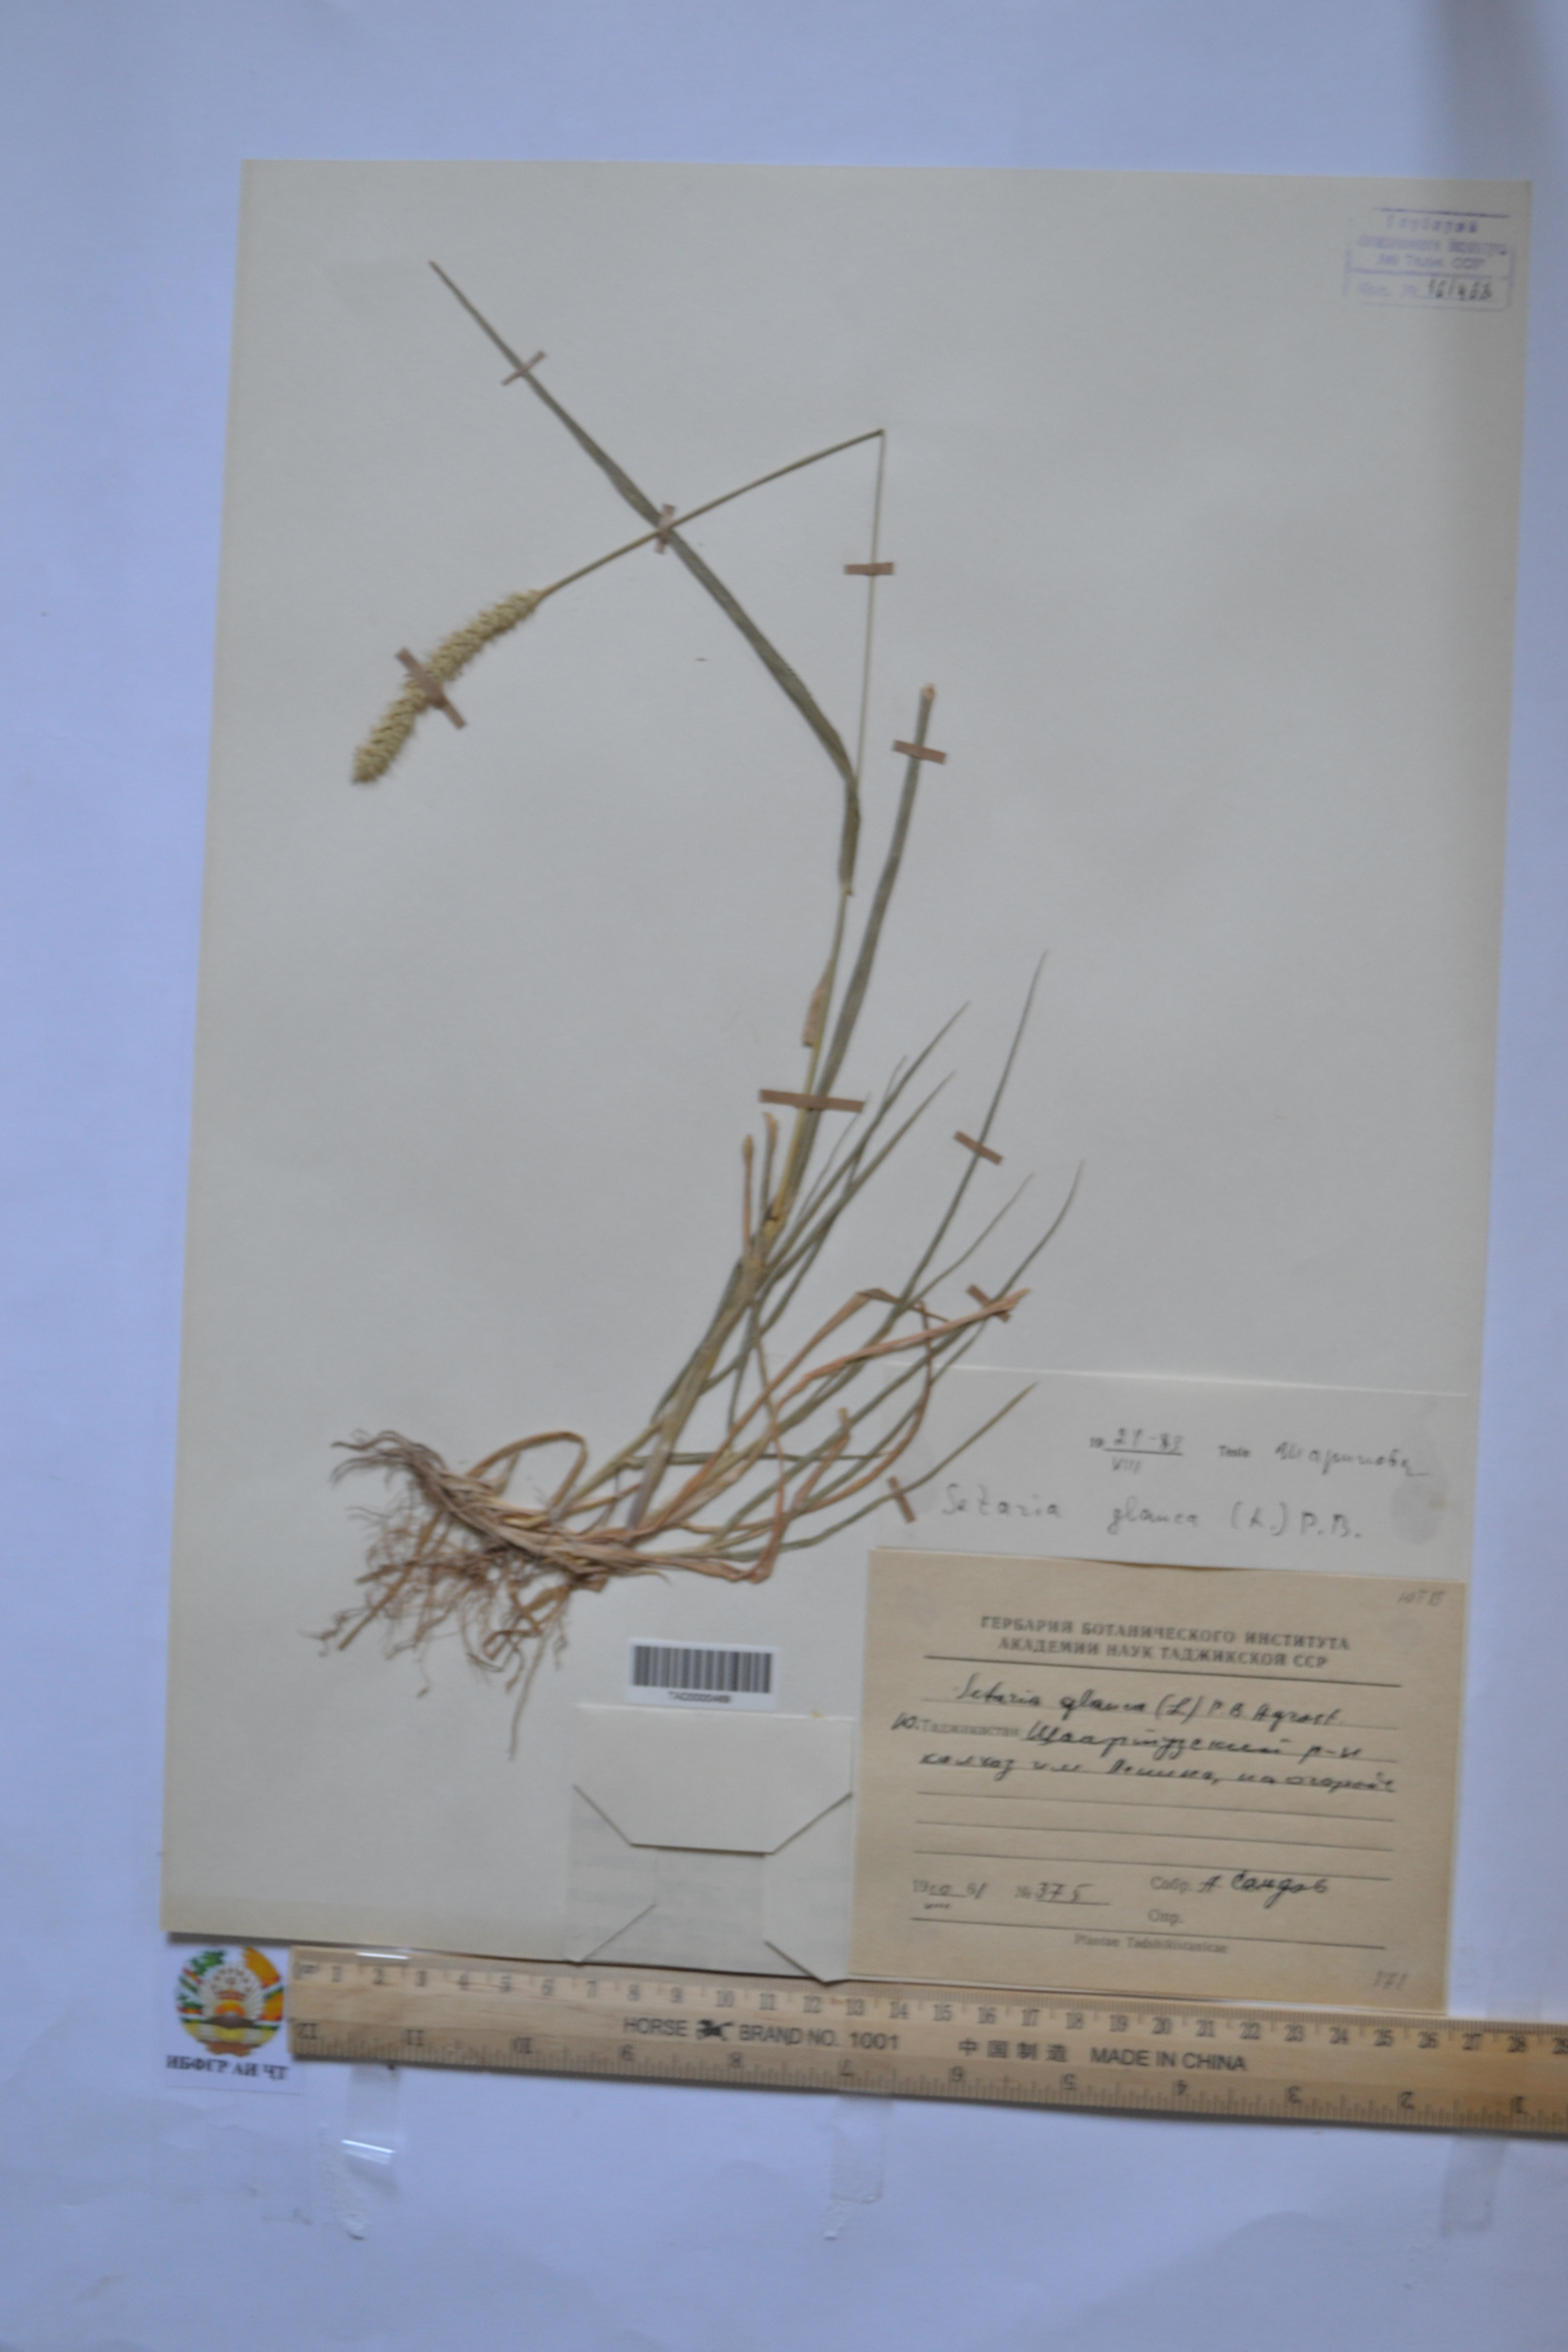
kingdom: Plantae
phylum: Tracheophyta
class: Liliopsida
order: Poales
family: Poaceae
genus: Cenchrus
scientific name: Cenchrus americanus
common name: Pearl millet
